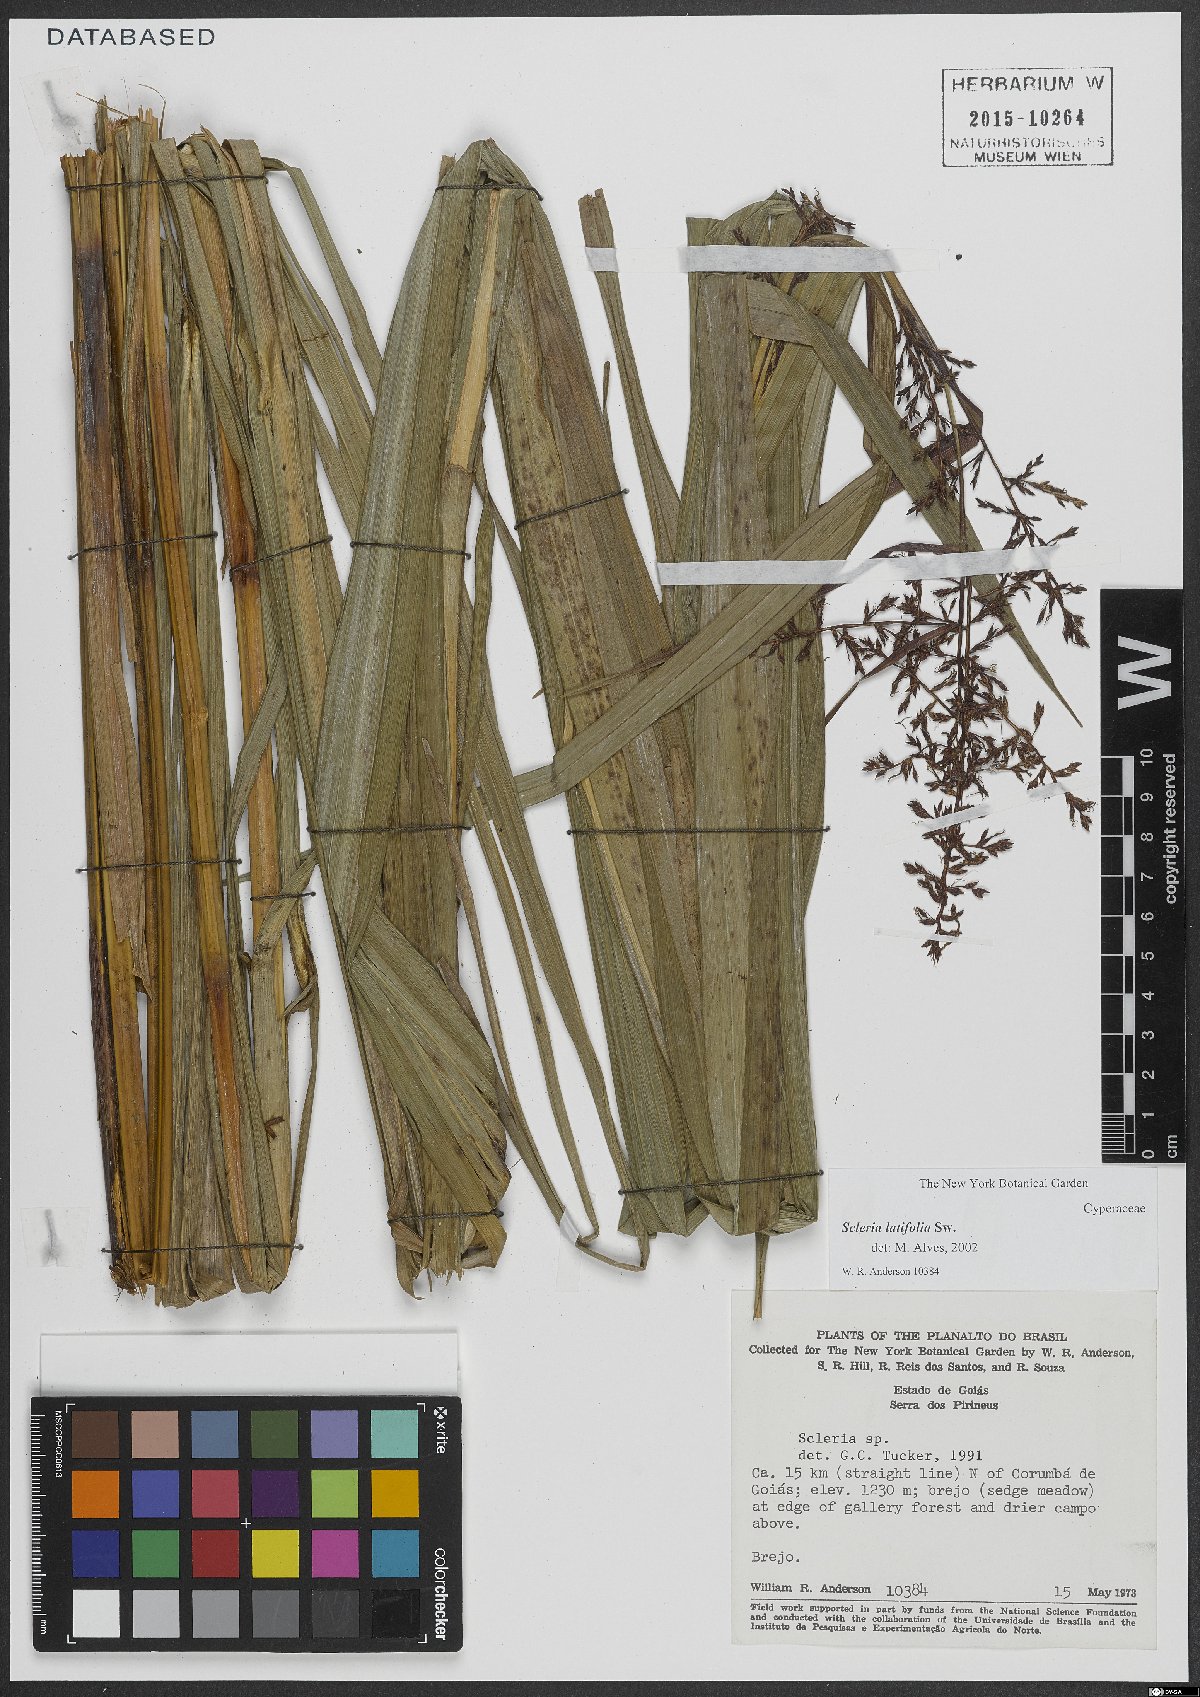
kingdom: Plantae
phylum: Tracheophyta
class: Liliopsida
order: Poales
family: Cyperaceae
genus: Scleria
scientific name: Scleria latifolia
